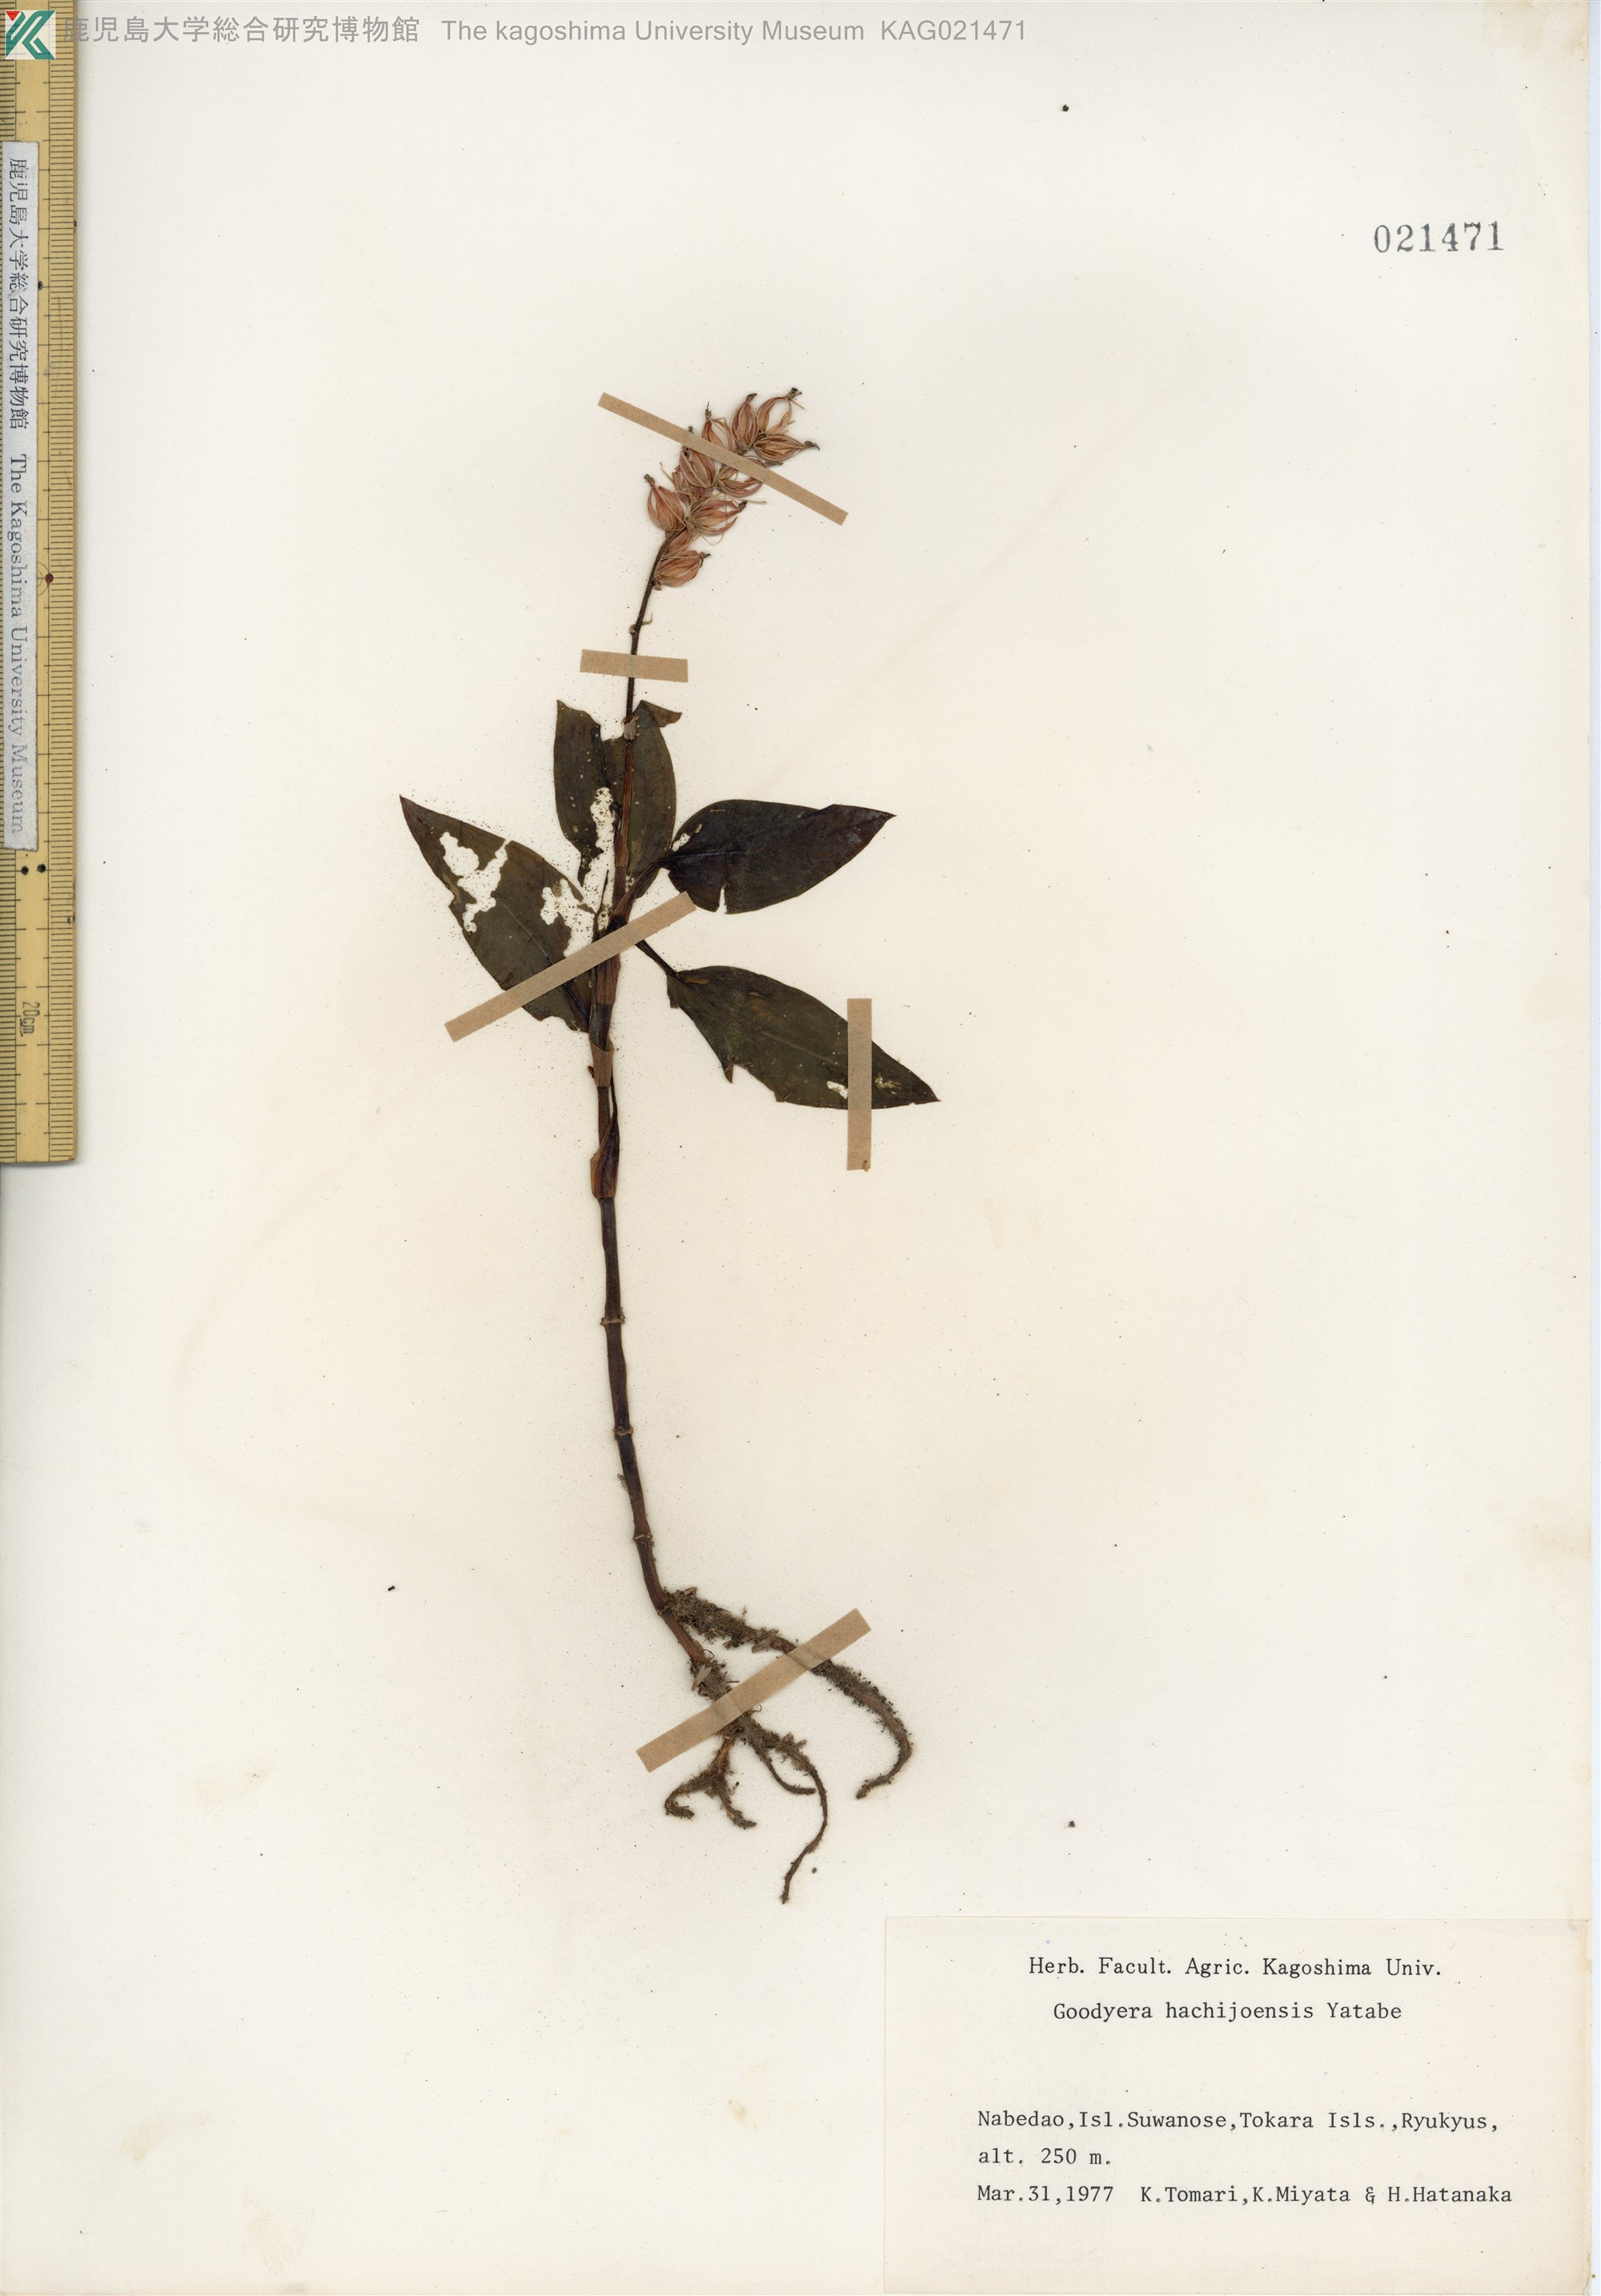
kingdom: Plantae
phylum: Tracheophyta
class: Liliopsida
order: Asparagales
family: Orchidaceae
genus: Goodyera
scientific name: Goodyera hachijoensis
